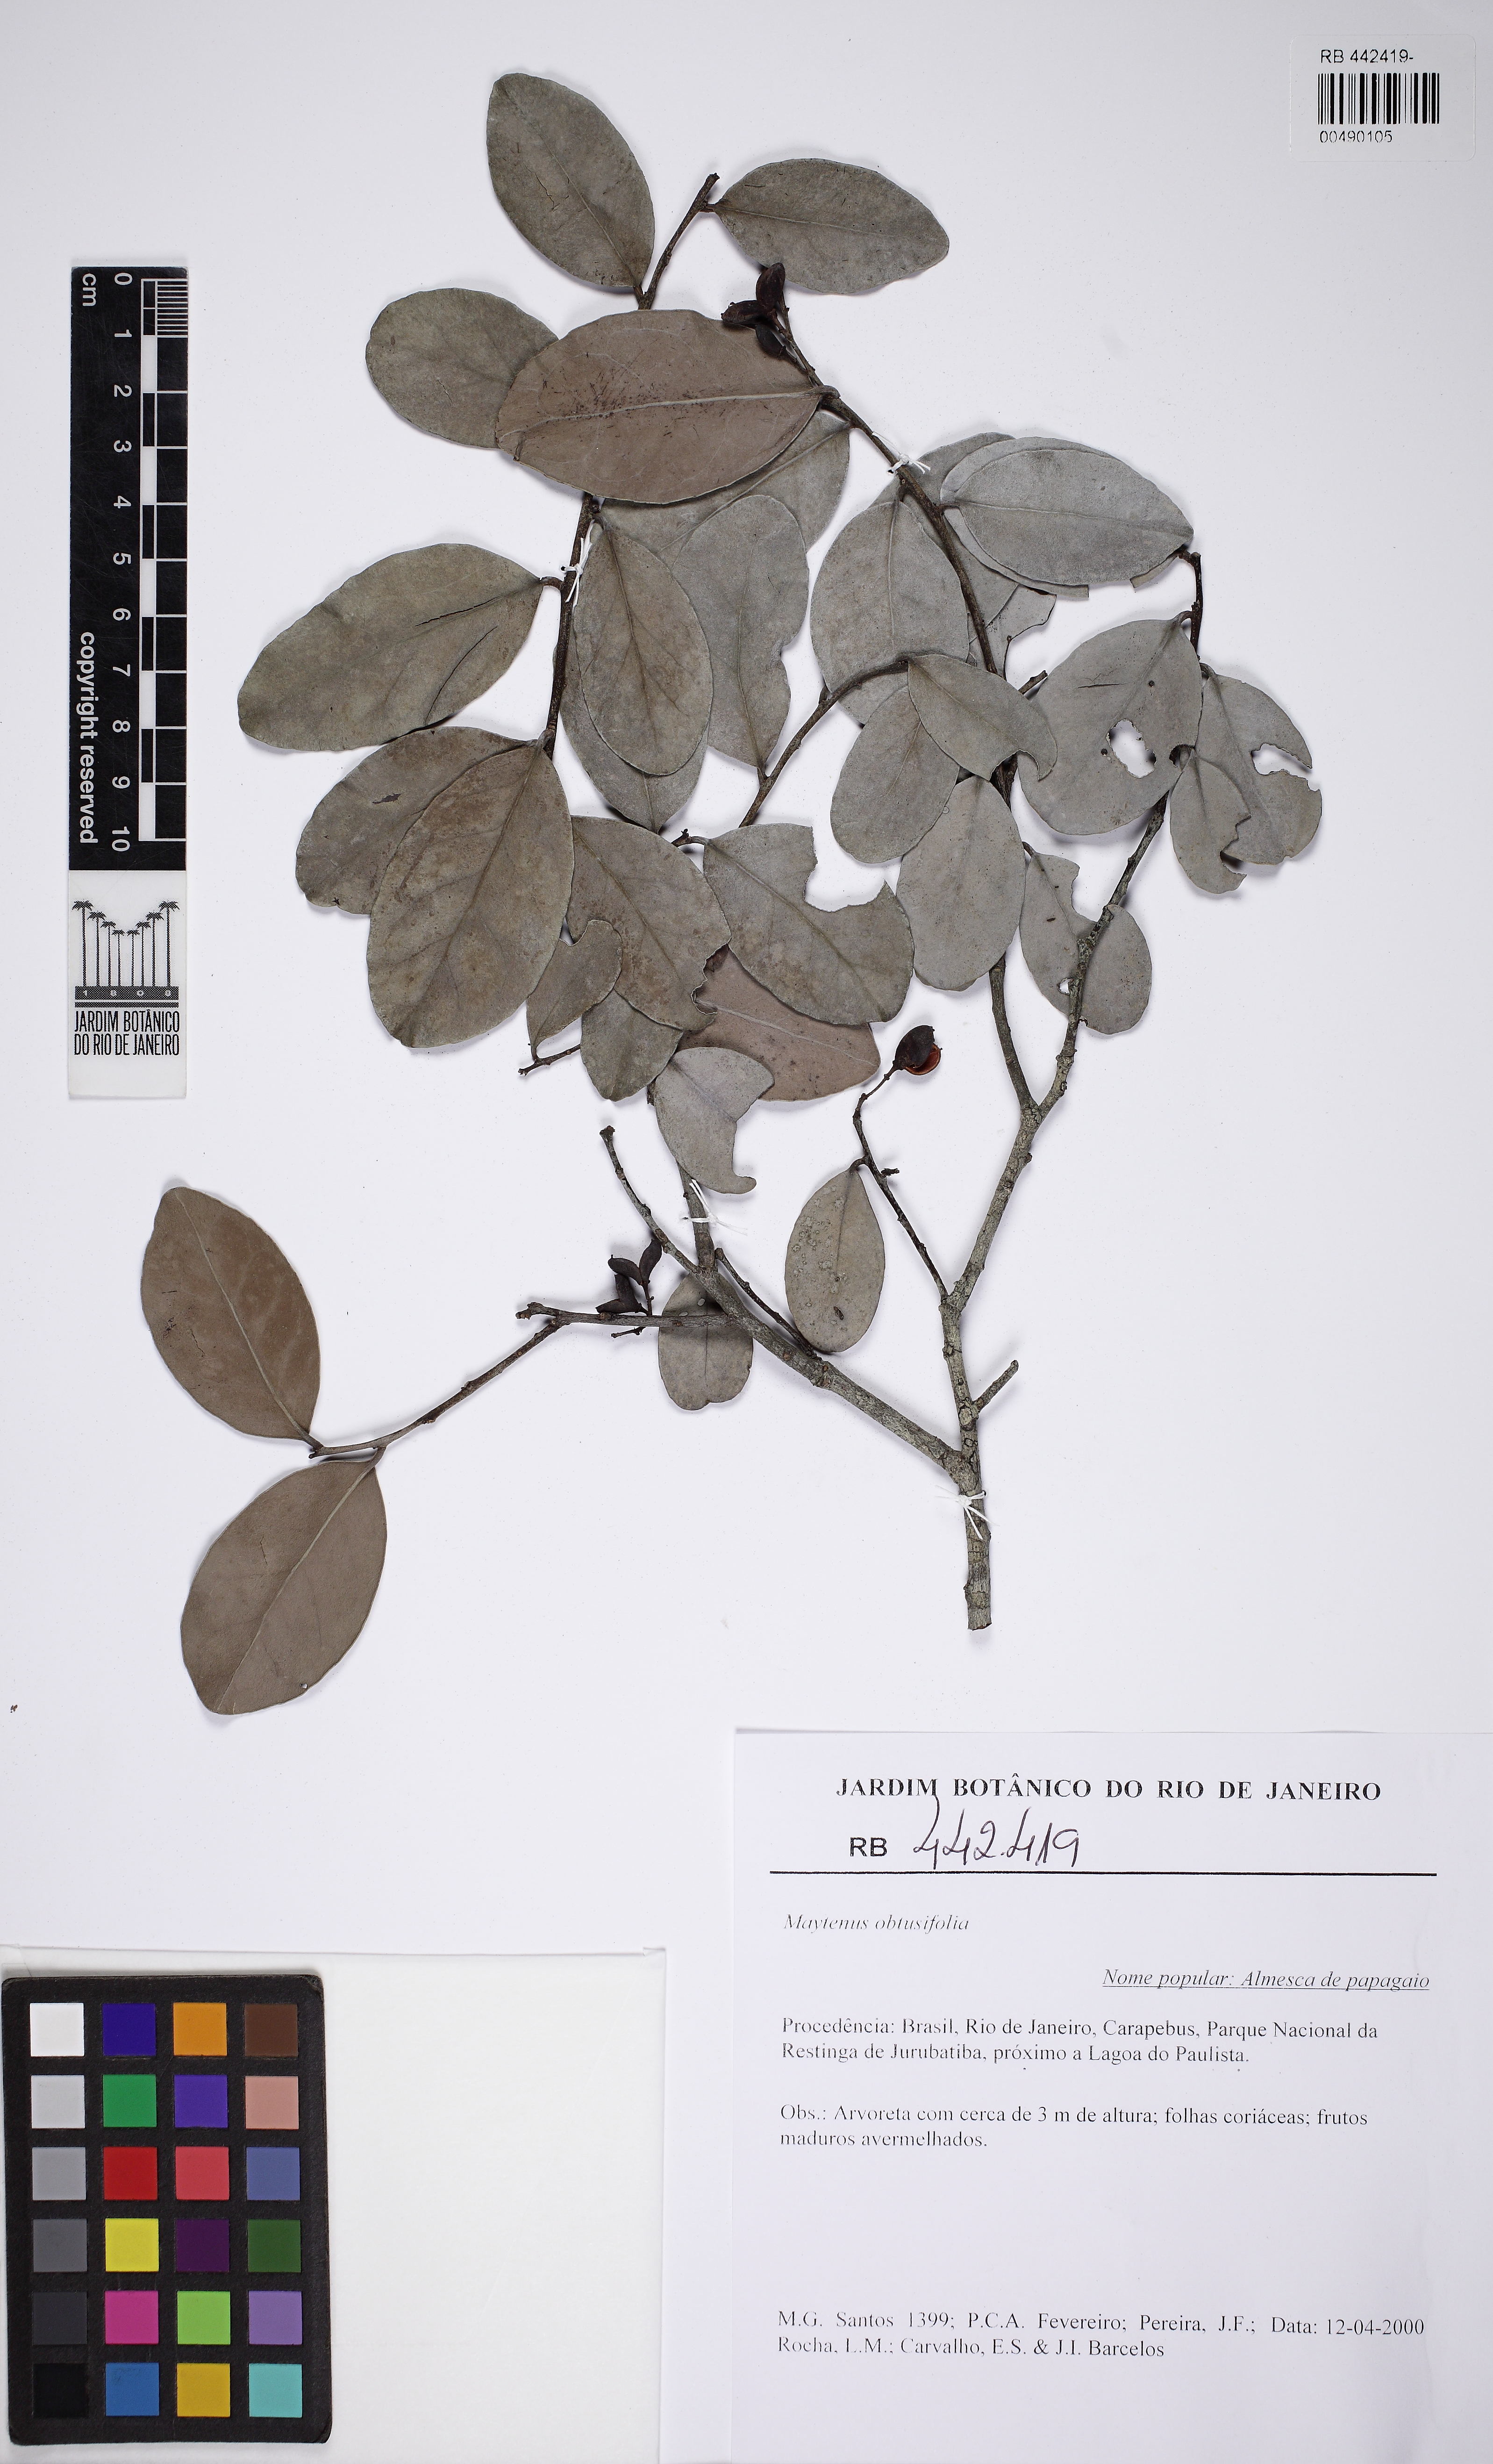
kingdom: Plantae
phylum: Tracheophyta
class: Magnoliopsida
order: Celastrales
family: Celastraceae
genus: Monteverdia
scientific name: Monteverdia obtusifolia
